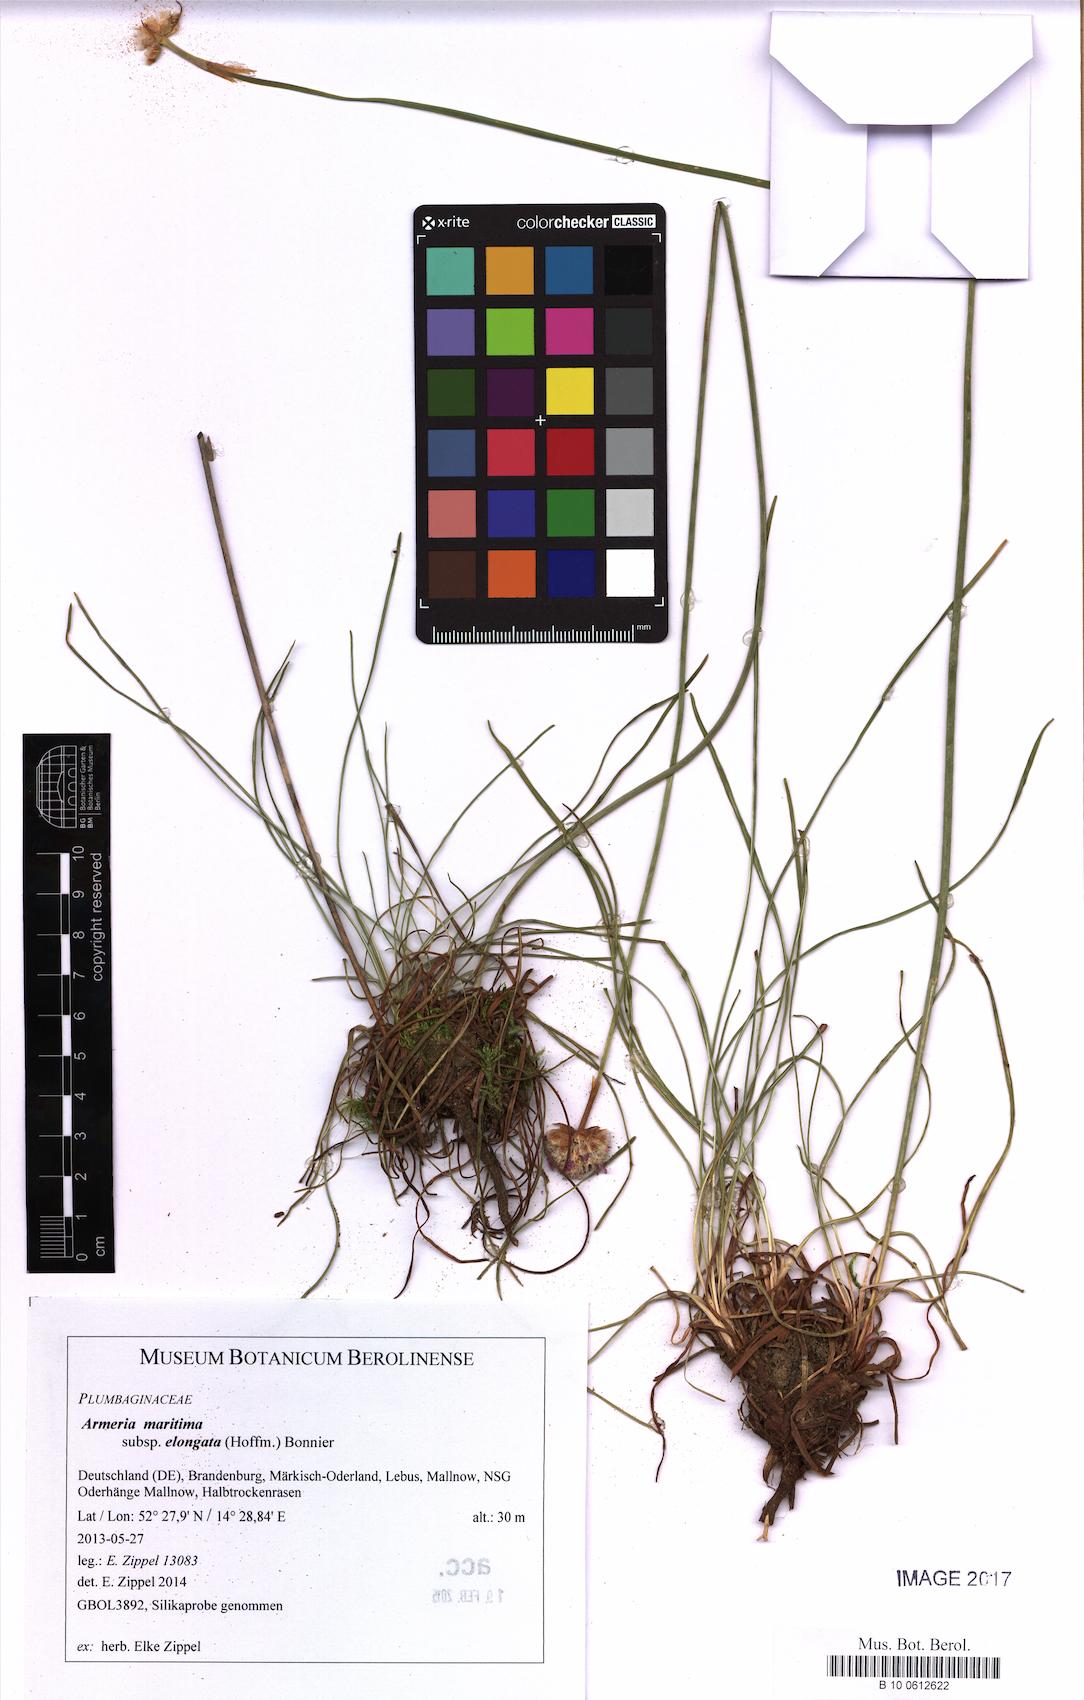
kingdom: Plantae
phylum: Tracheophyta
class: Magnoliopsida
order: Caryophyllales
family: Plumbaginaceae
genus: Armeria
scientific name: Armeria maritima
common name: Thrift
